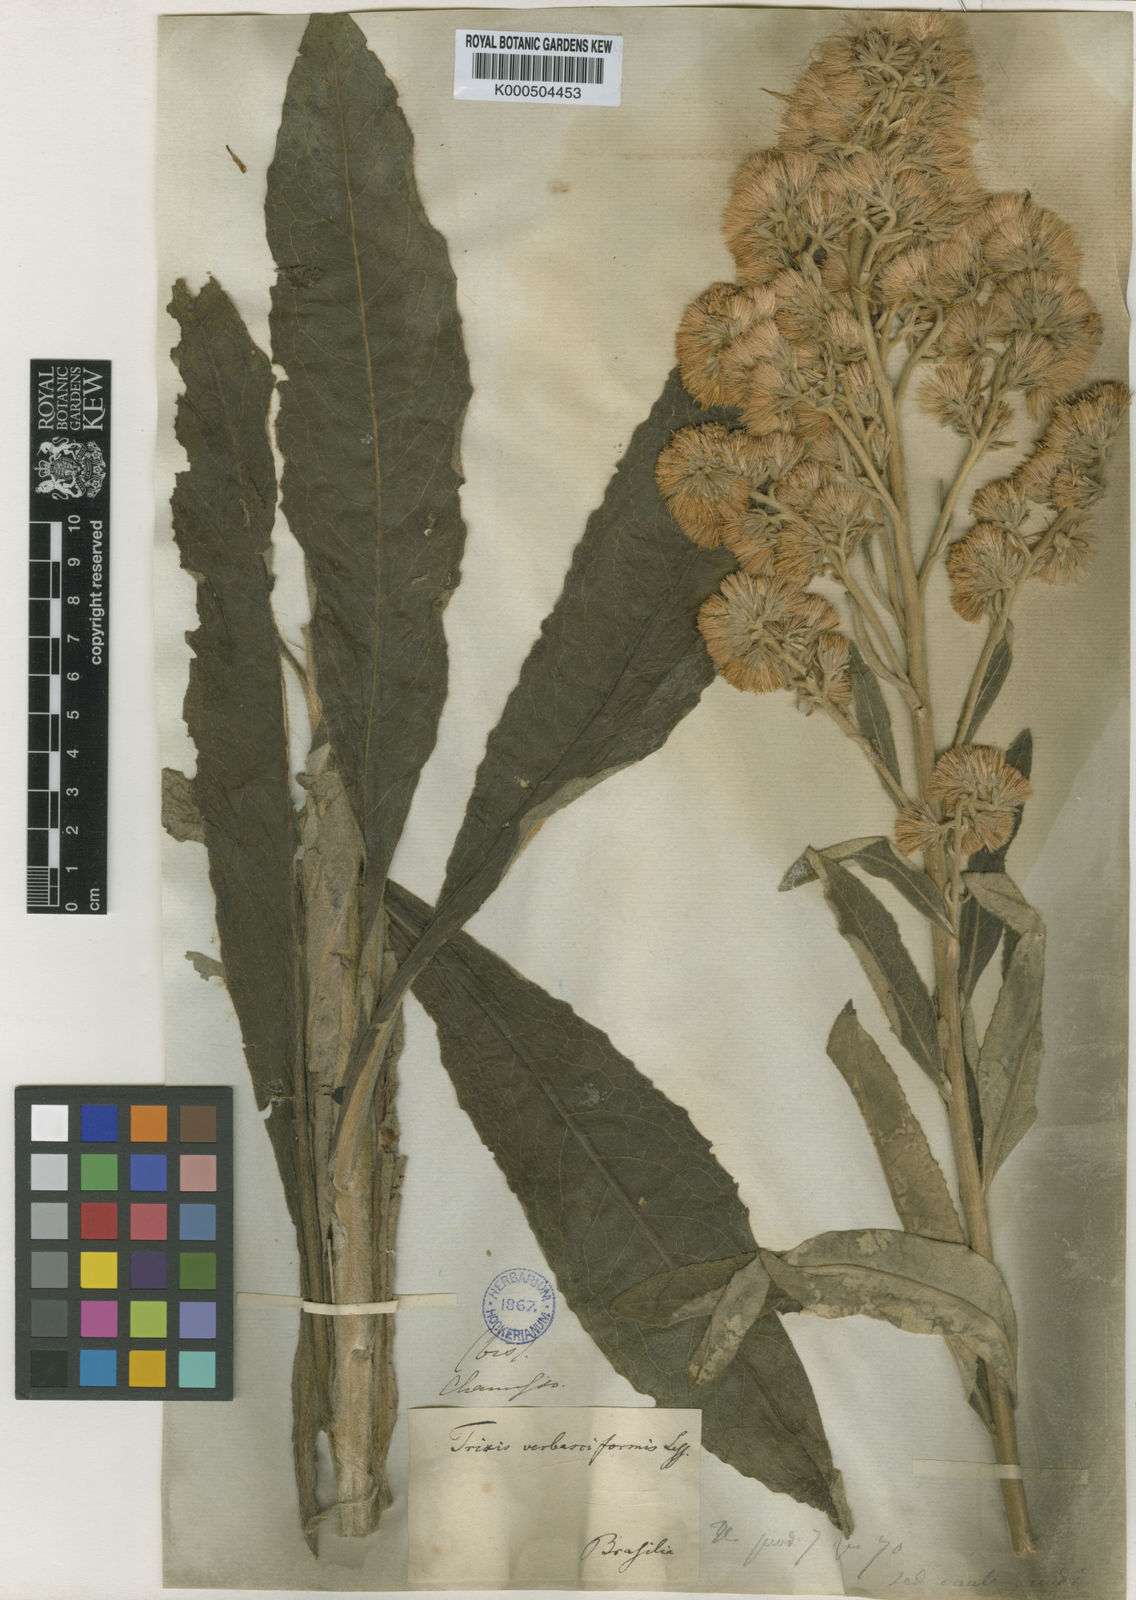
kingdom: Plantae
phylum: Tracheophyta
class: Magnoliopsida
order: Asterales
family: Asteraceae
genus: Trixis
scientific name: Trixis nobilis
